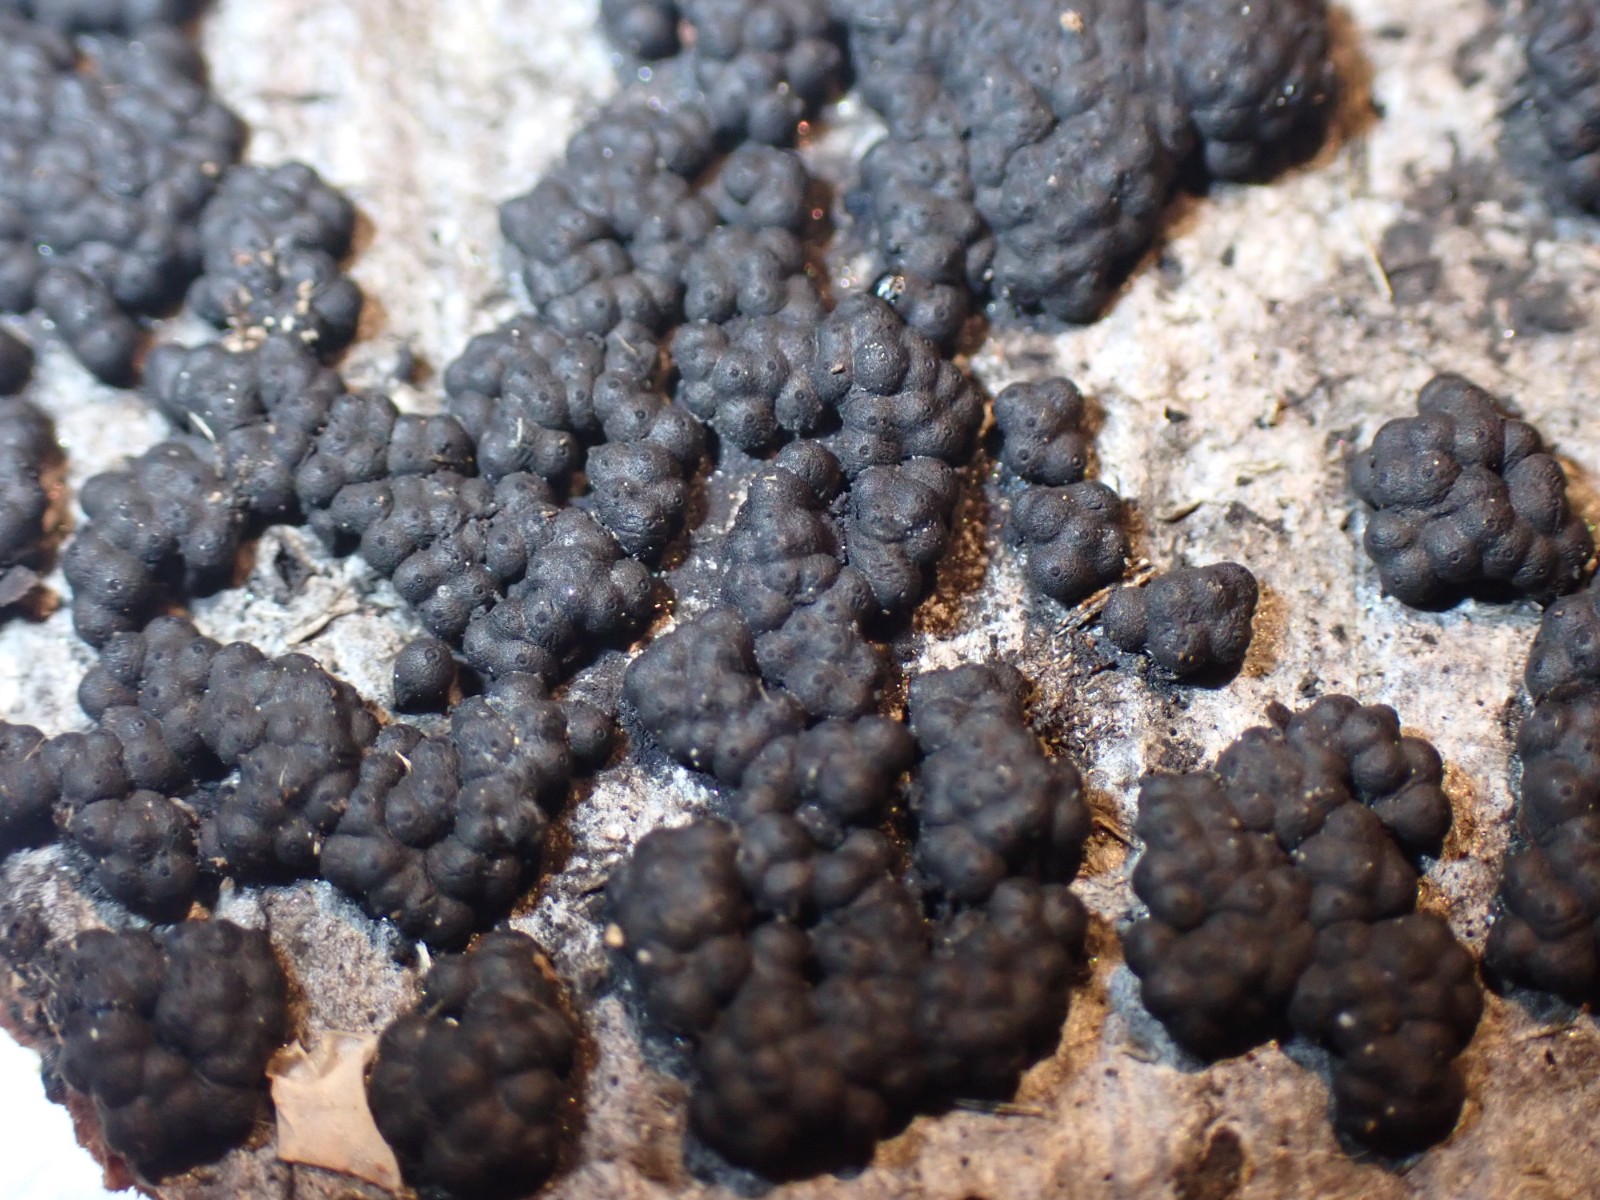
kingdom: Fungi
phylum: Ascomycota
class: Sordariomycetes
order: Xylariales
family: Hypoxylaceae
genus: Jackrogersella
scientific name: Jackrogersella cohaerens
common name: sammenflydende kulbær
